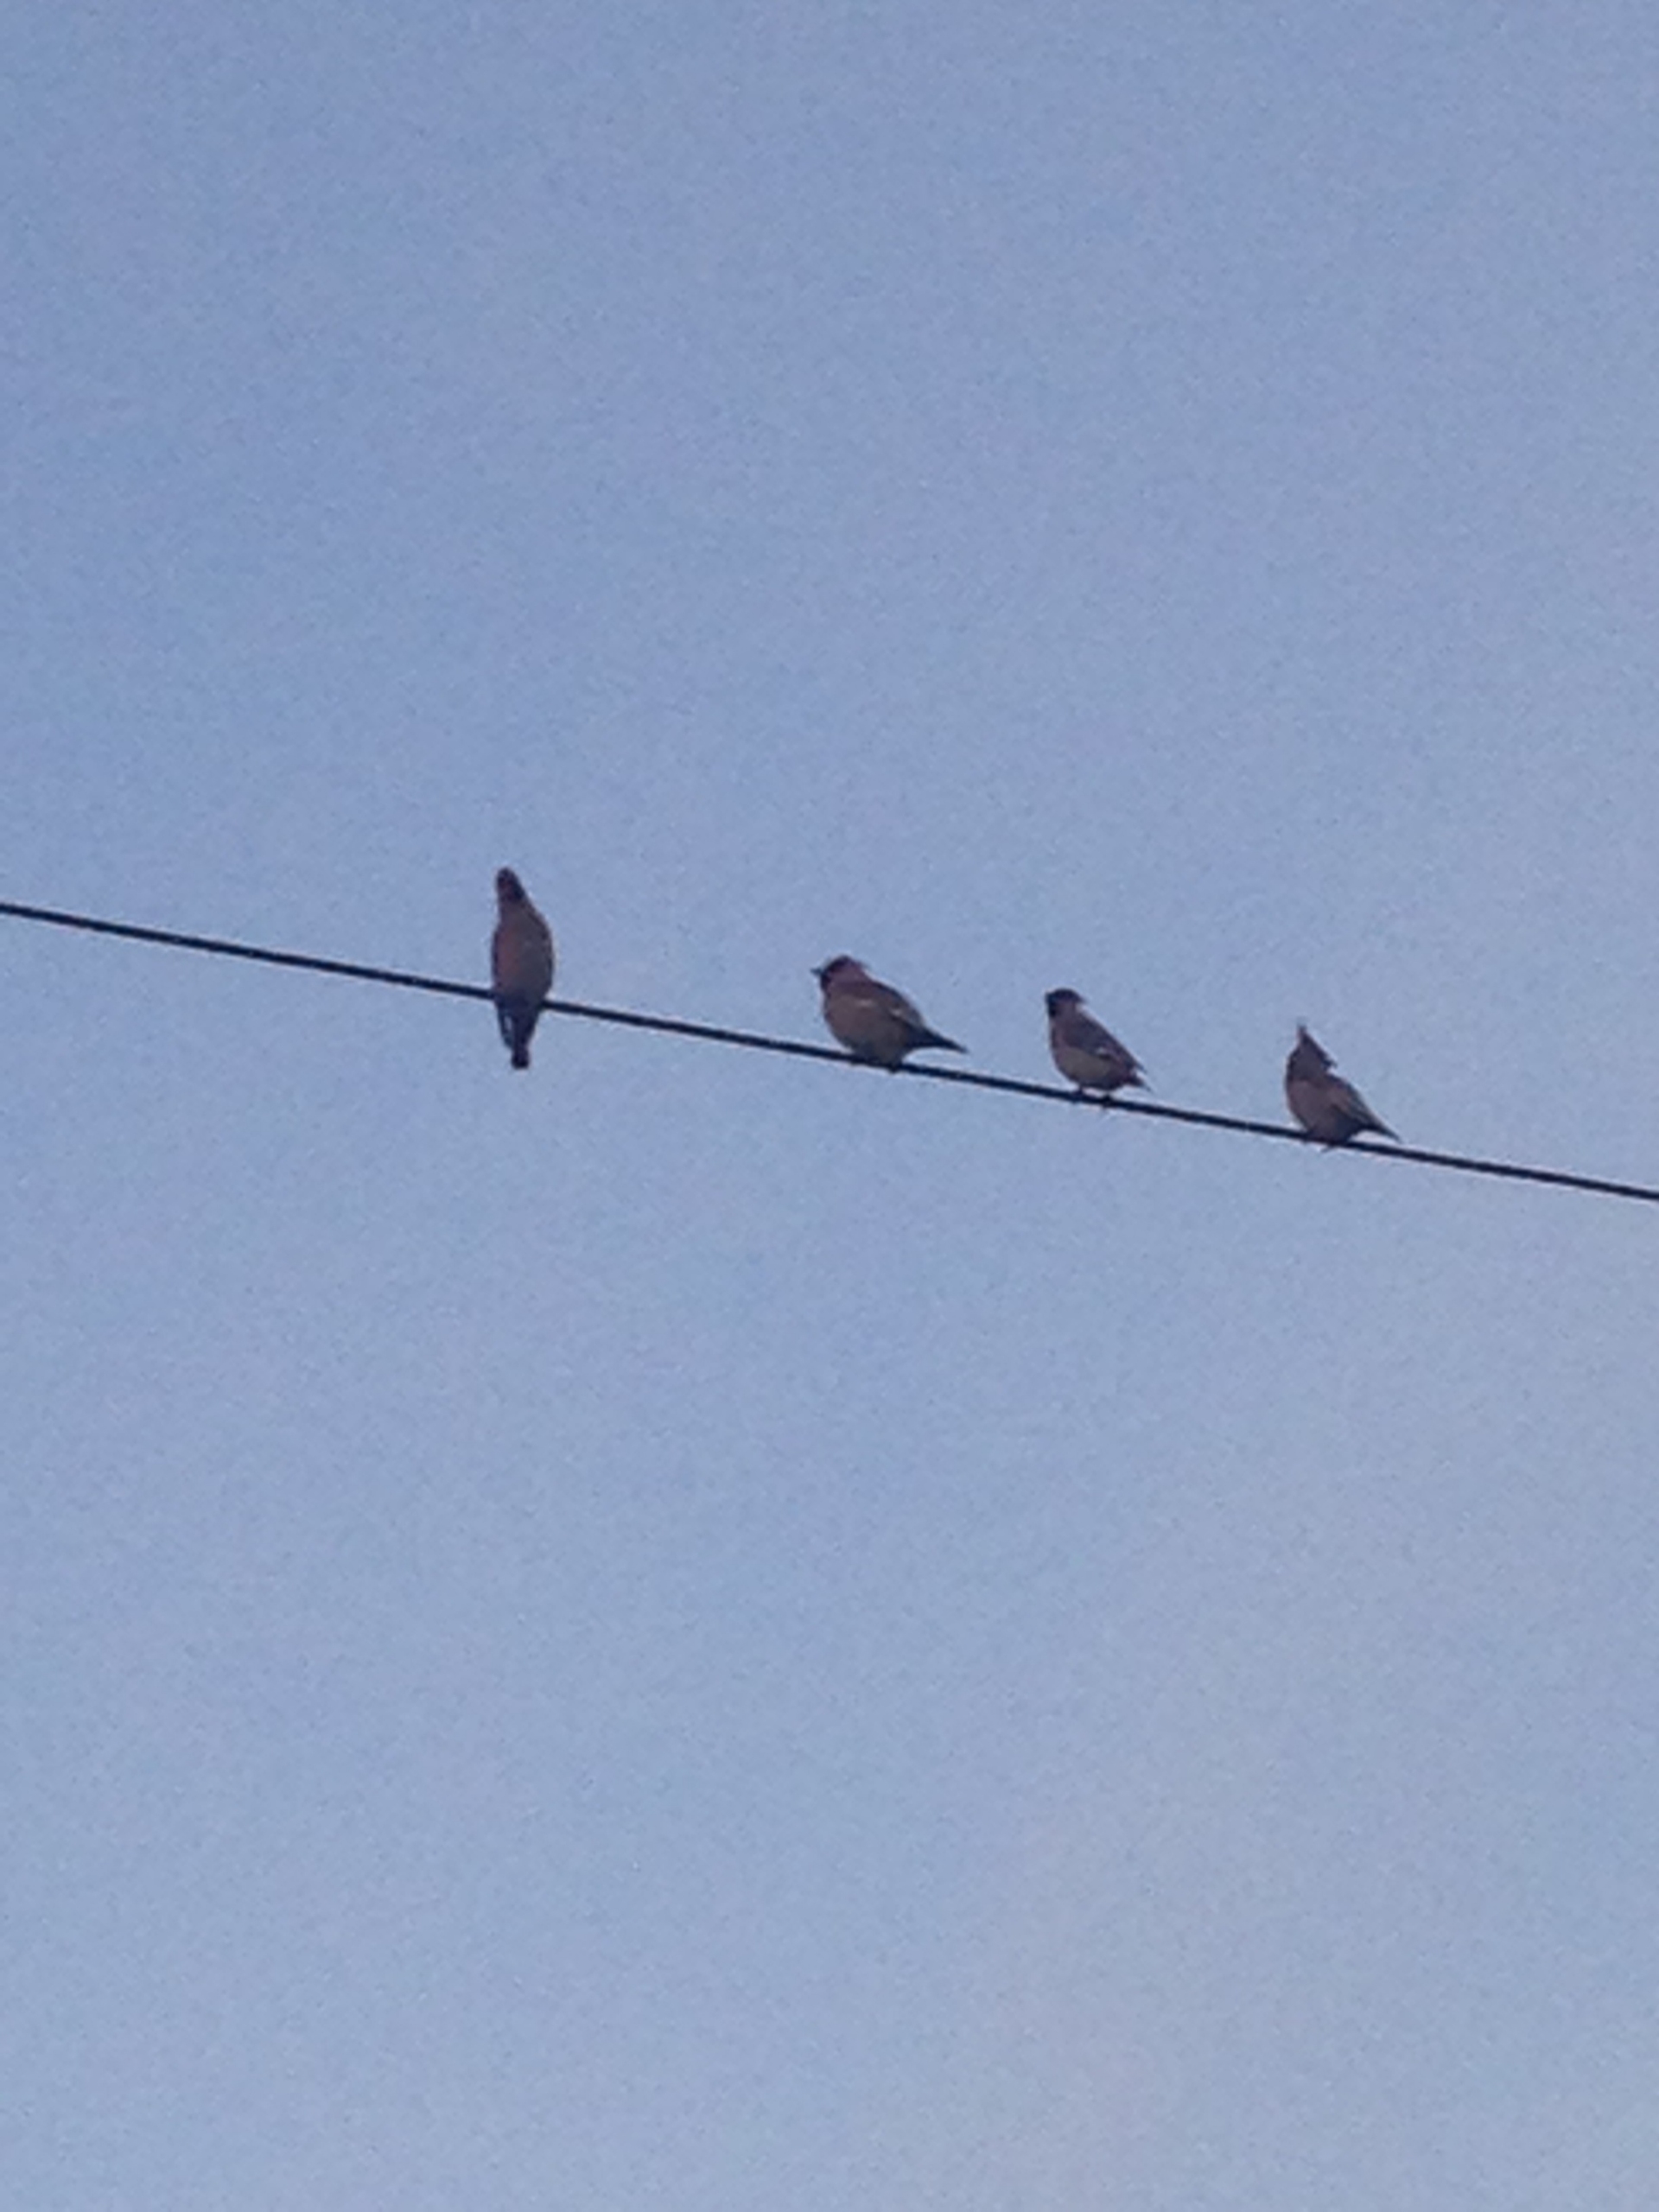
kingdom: Animalia
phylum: Chordata
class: Aves
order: Passeriformes
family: Bombycillidae
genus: Bombycilla
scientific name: Bombycilla garrulus
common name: Silkehale
